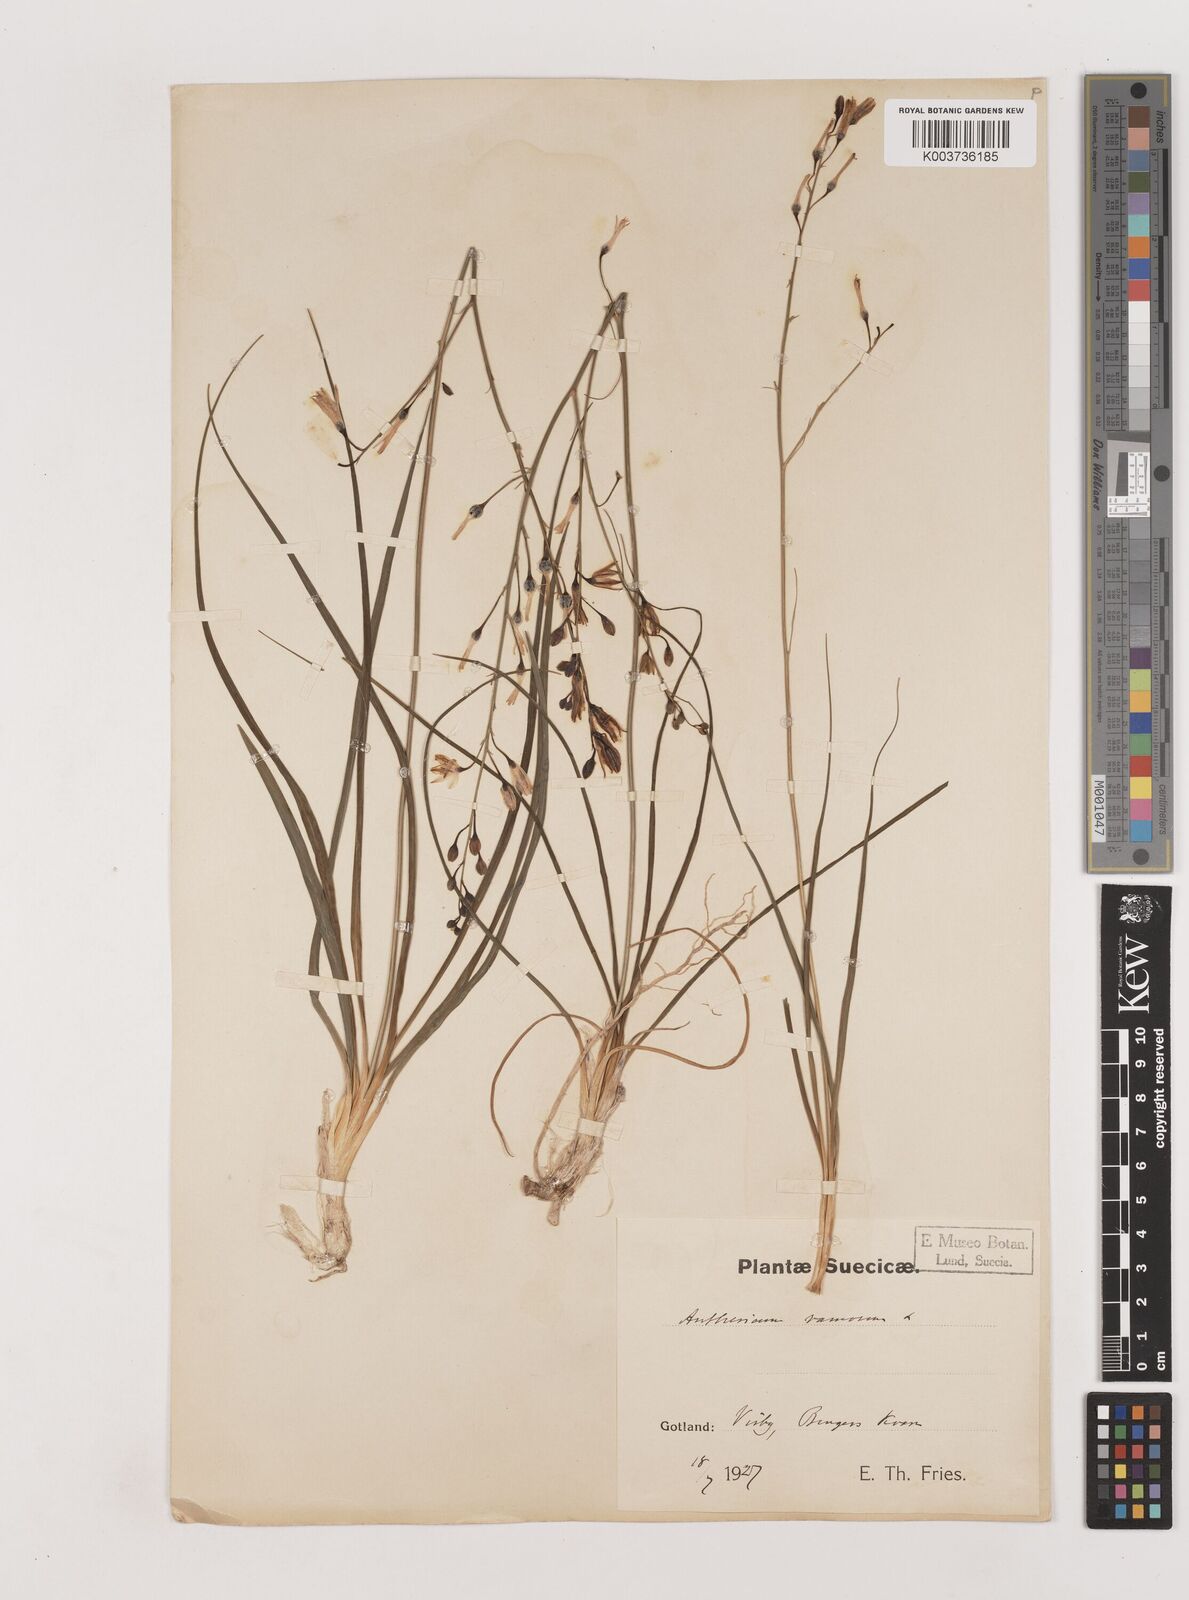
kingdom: Plantae
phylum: Tracheophyta
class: Liliopsida
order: Asparagales
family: Asparagaceae
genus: Anthericum
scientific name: Anthericum ramosum
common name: Branched st. bernard's-lily
